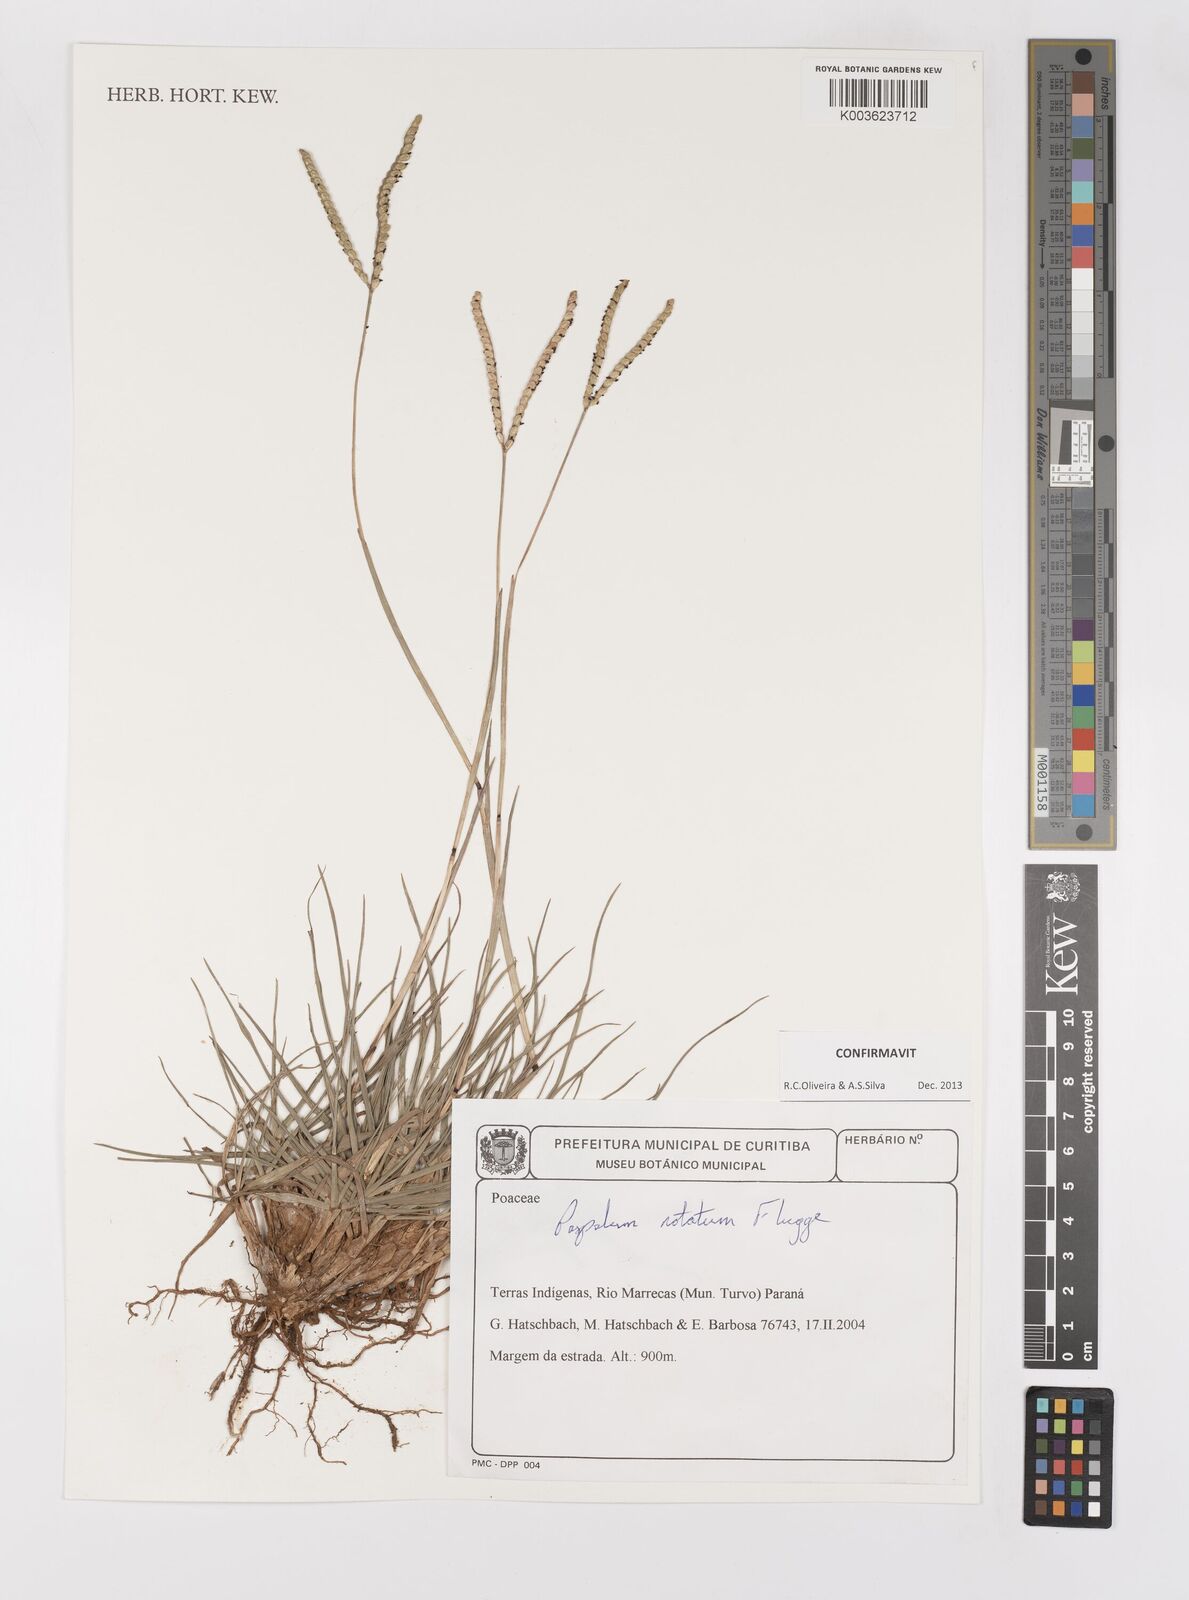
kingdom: Plantae
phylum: Tracheophyta
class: Liliopsida
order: Poales
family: Poaceae
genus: Paspalum
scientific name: Paspalum notatum
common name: Bahiagrass
